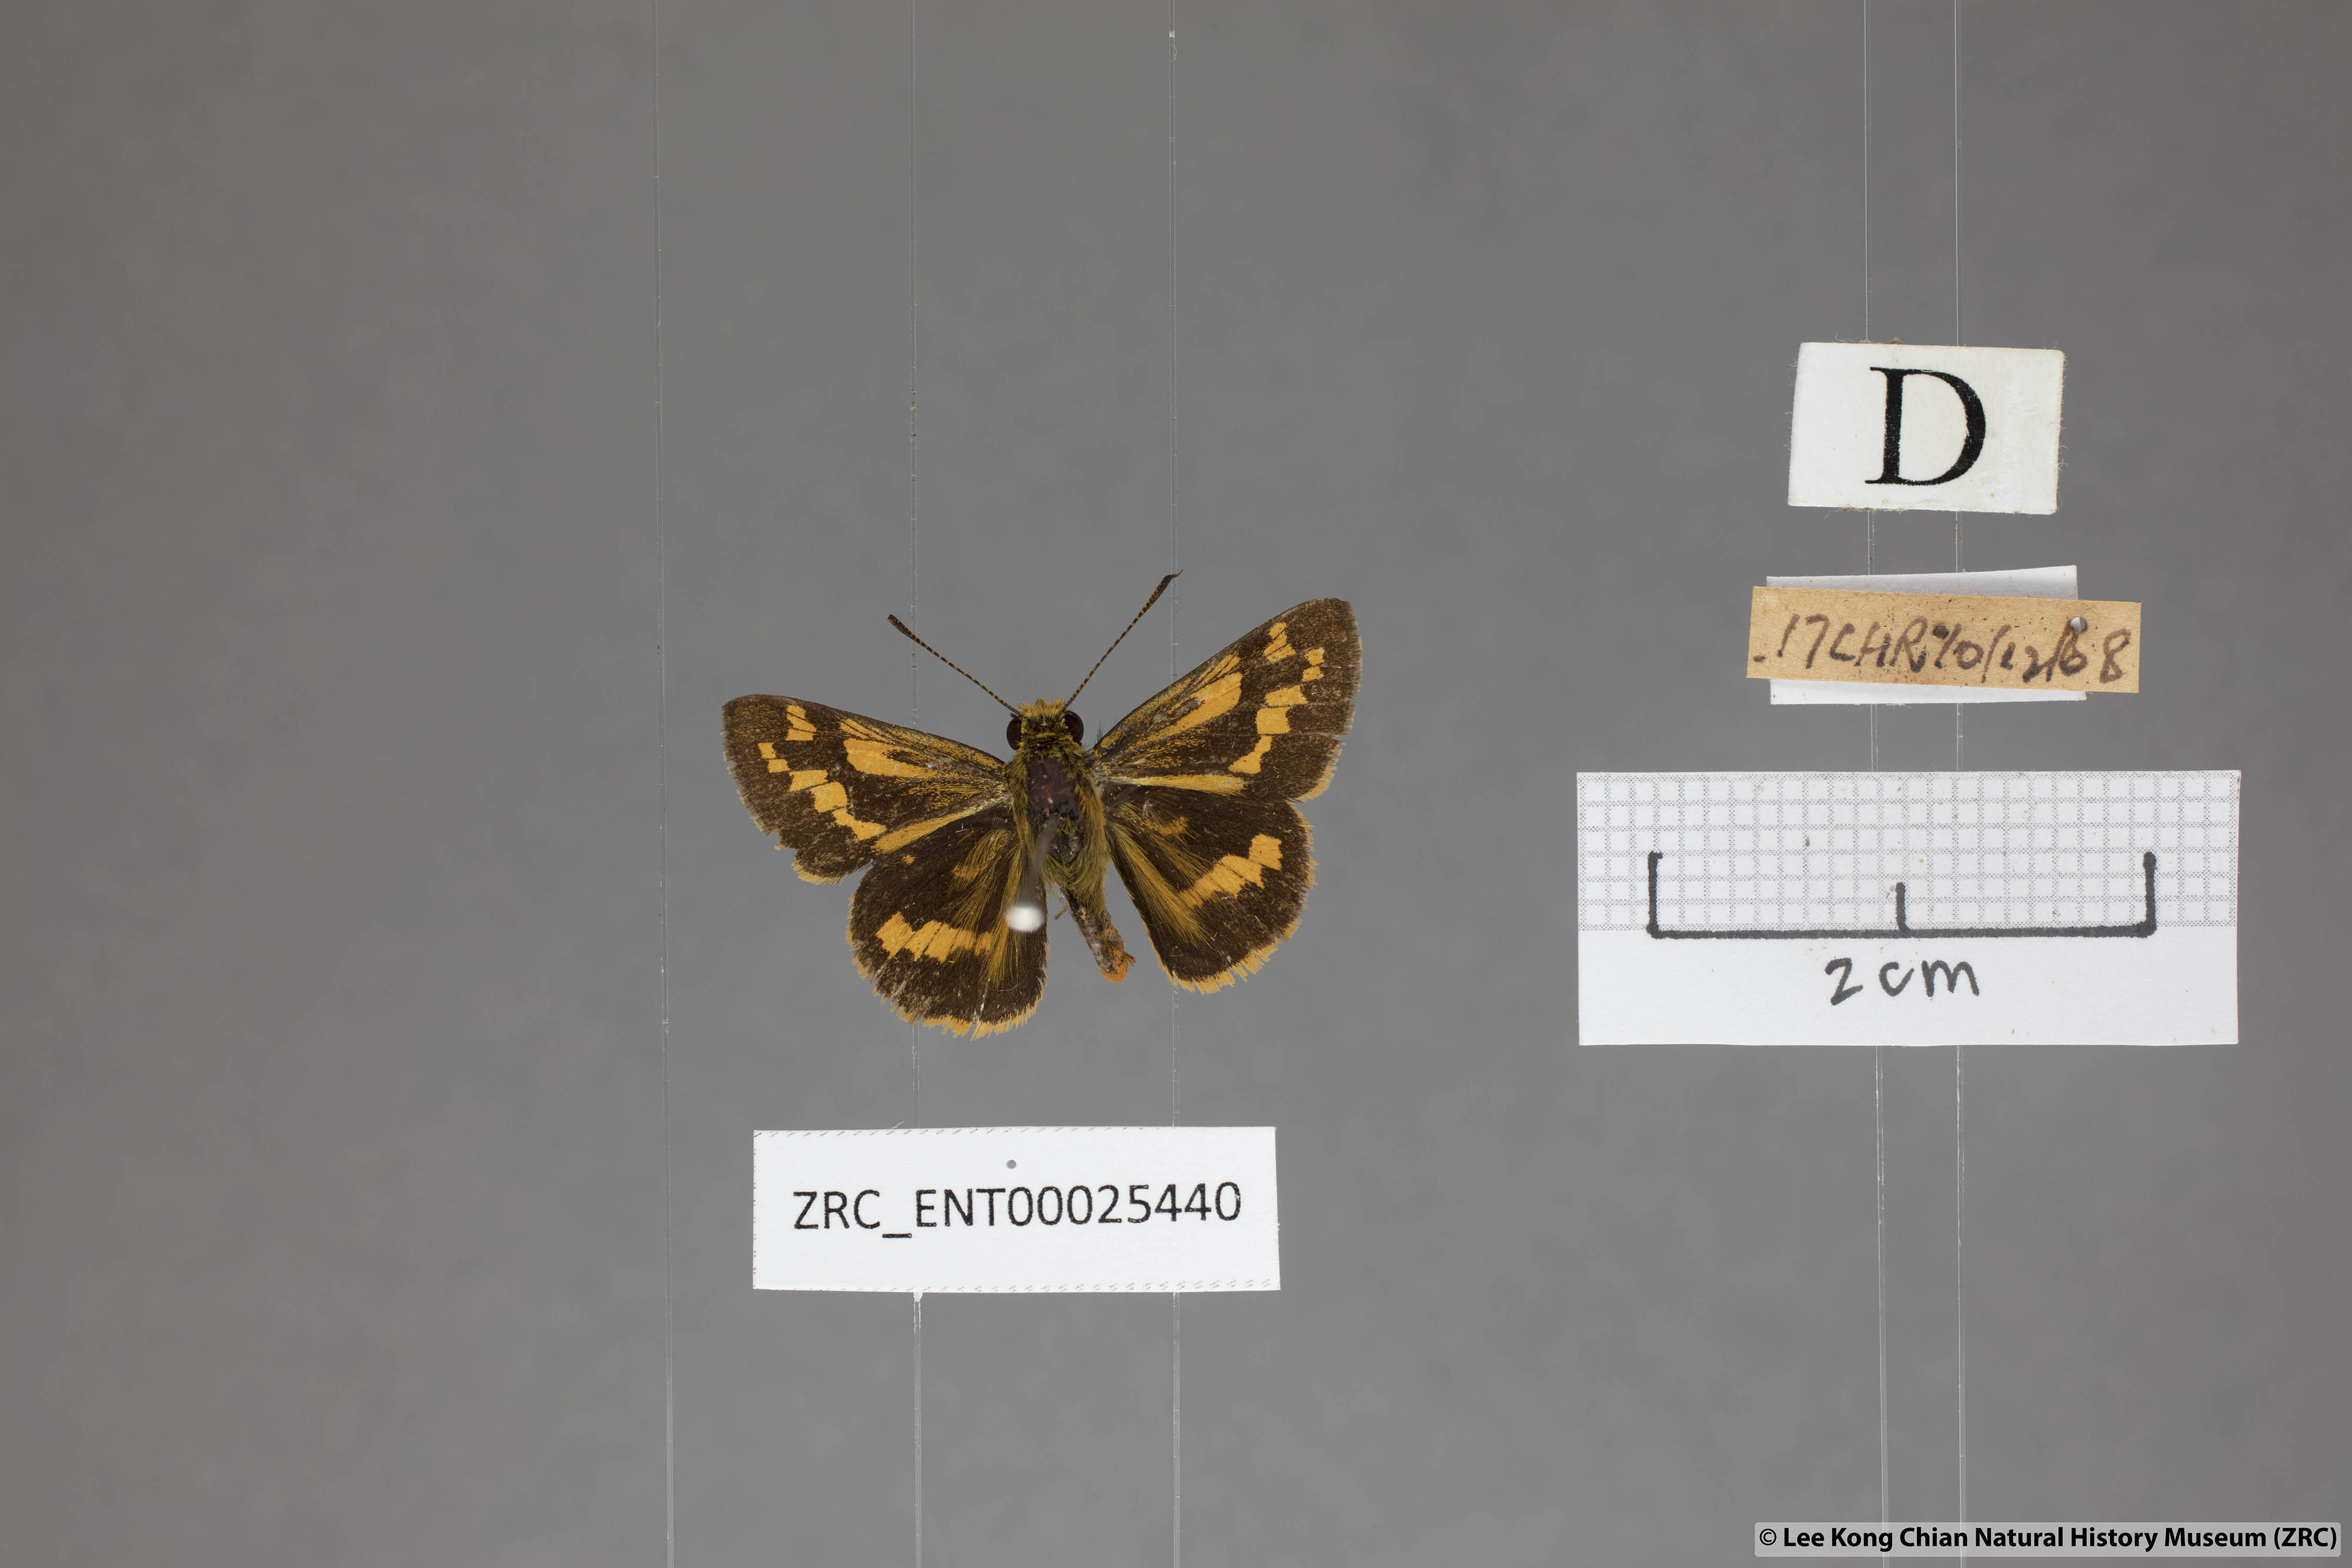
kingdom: Animalia
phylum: Arthropoda
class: Insecta
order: Lepidoptera
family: Hesperiidae
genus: Potanthus
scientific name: Potanthus omaha
